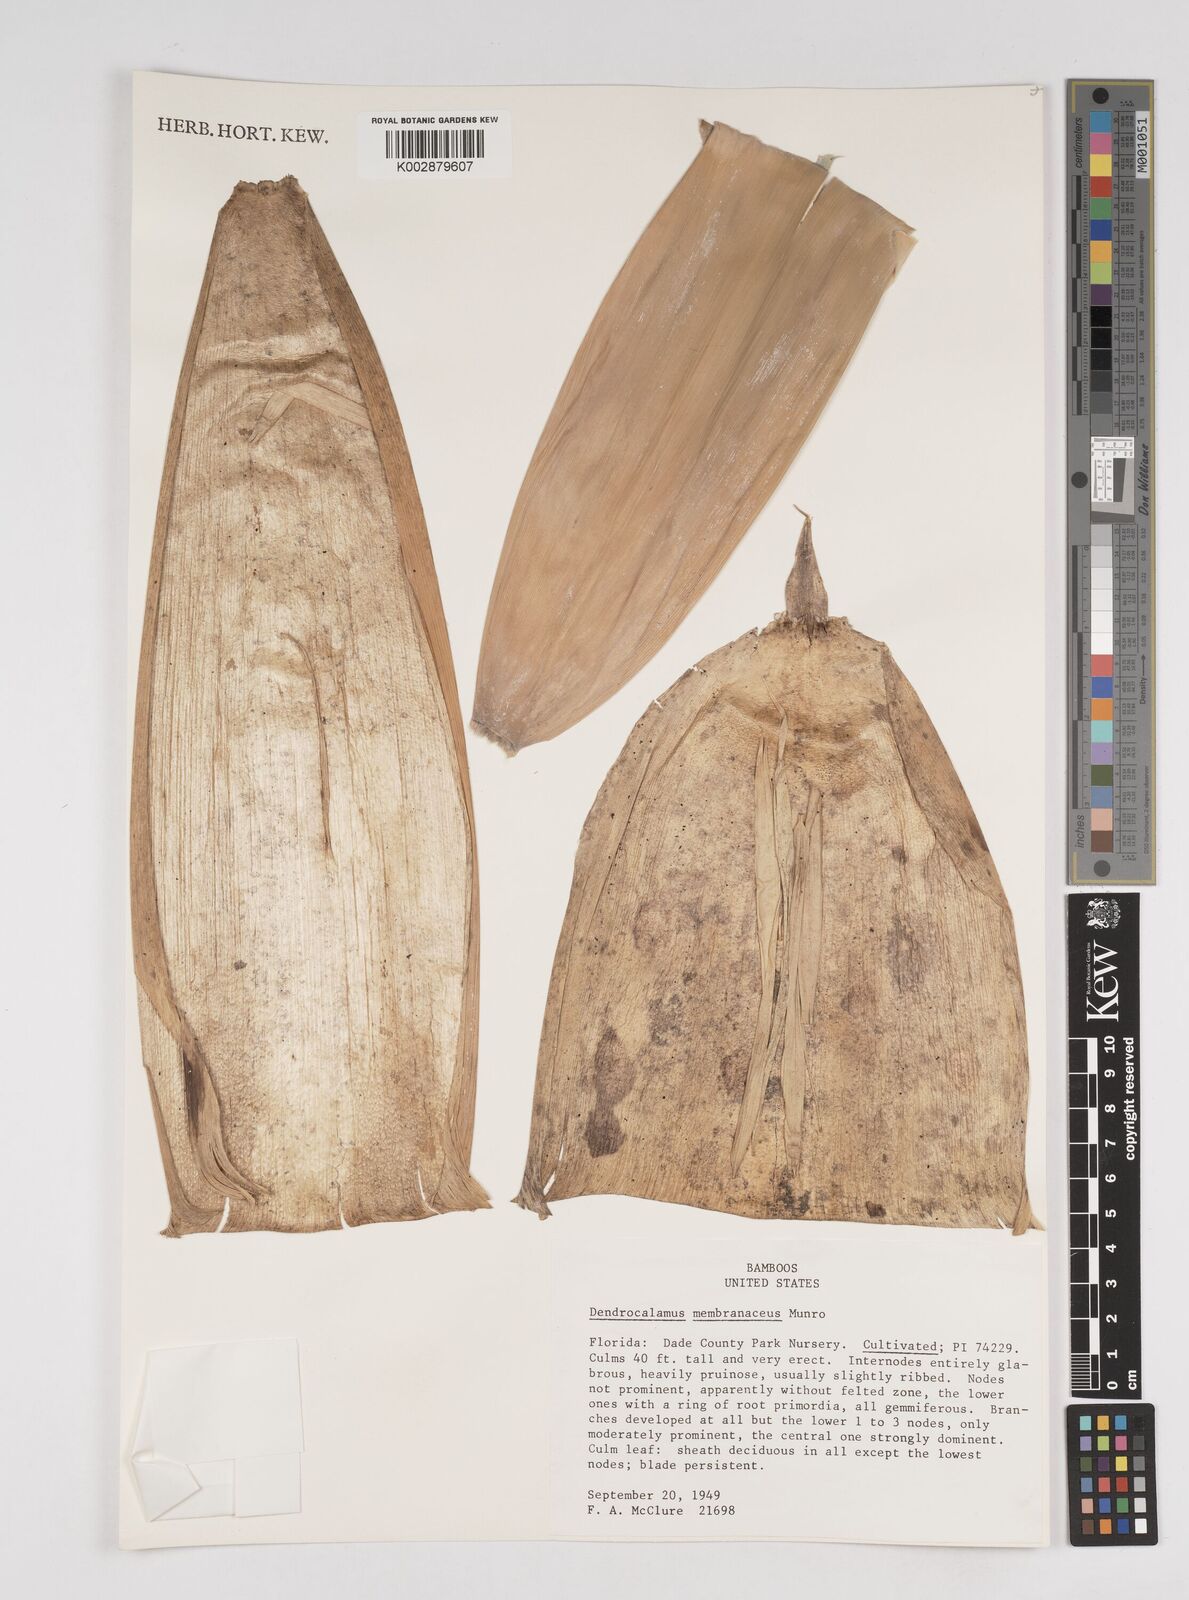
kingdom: Plantae
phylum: Tracheophyta
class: Liliopsida
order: Poales
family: Poaceae
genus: Dendrocalamus
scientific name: Dendrocalamus membranaceus
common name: White bamboo
